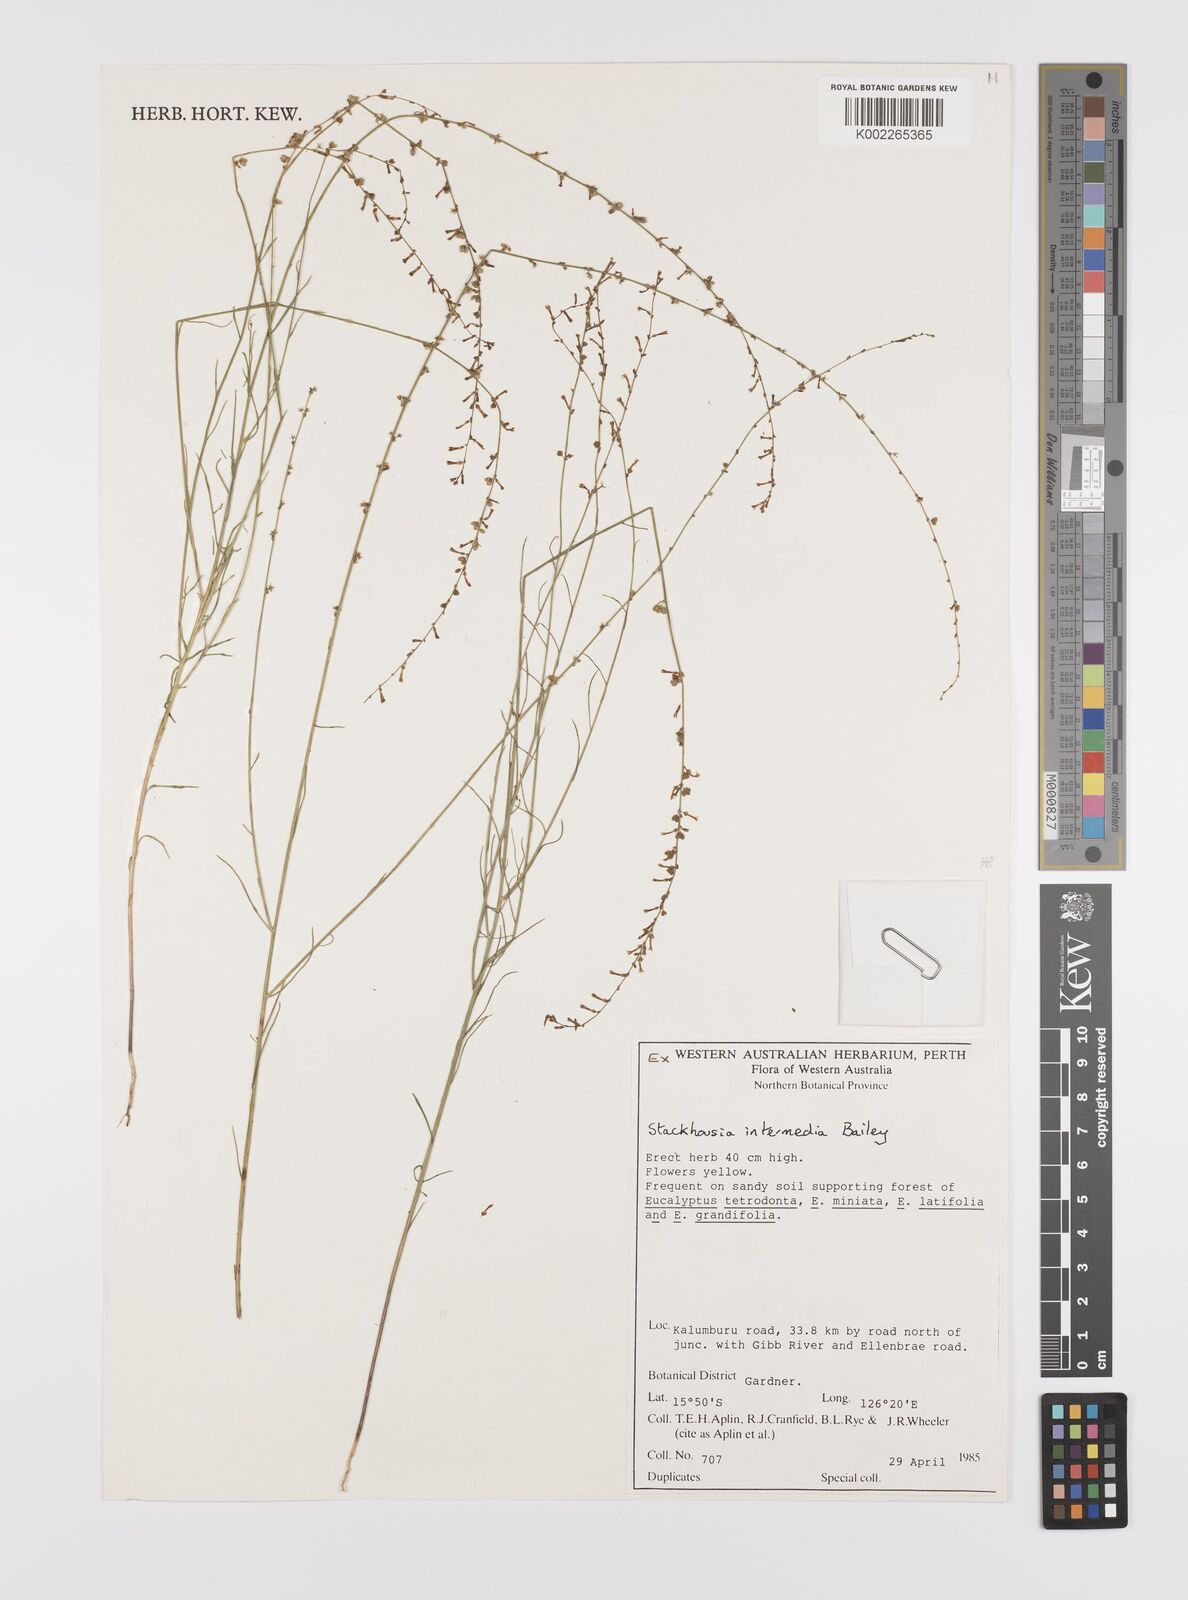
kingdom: Plantae
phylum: Tracheophyta
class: Magnoliopsida
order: Celastrales
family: Celastraceae
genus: Stackhousia
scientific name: Stackhousia intermedia
